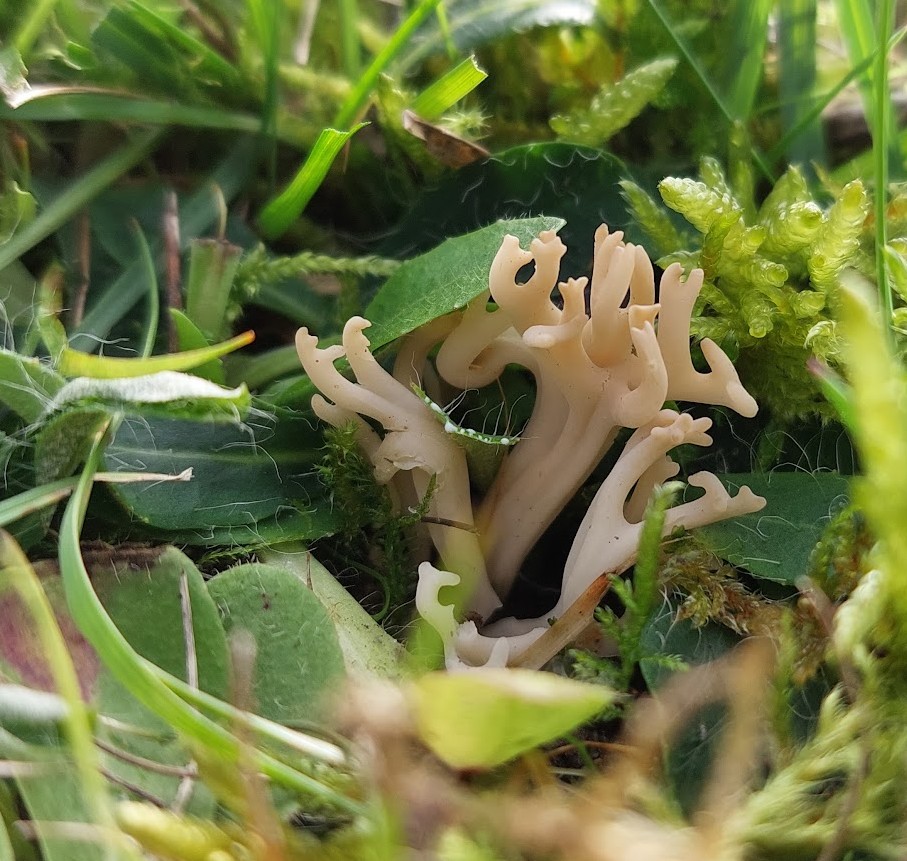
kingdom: Fungi
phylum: Basidiomycota
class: Agaricomycetes
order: Agaricales
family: Clavariaceae
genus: Clavulinopsis
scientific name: Clavulinopsis umbrinella
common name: gulgrå køllesvamp
